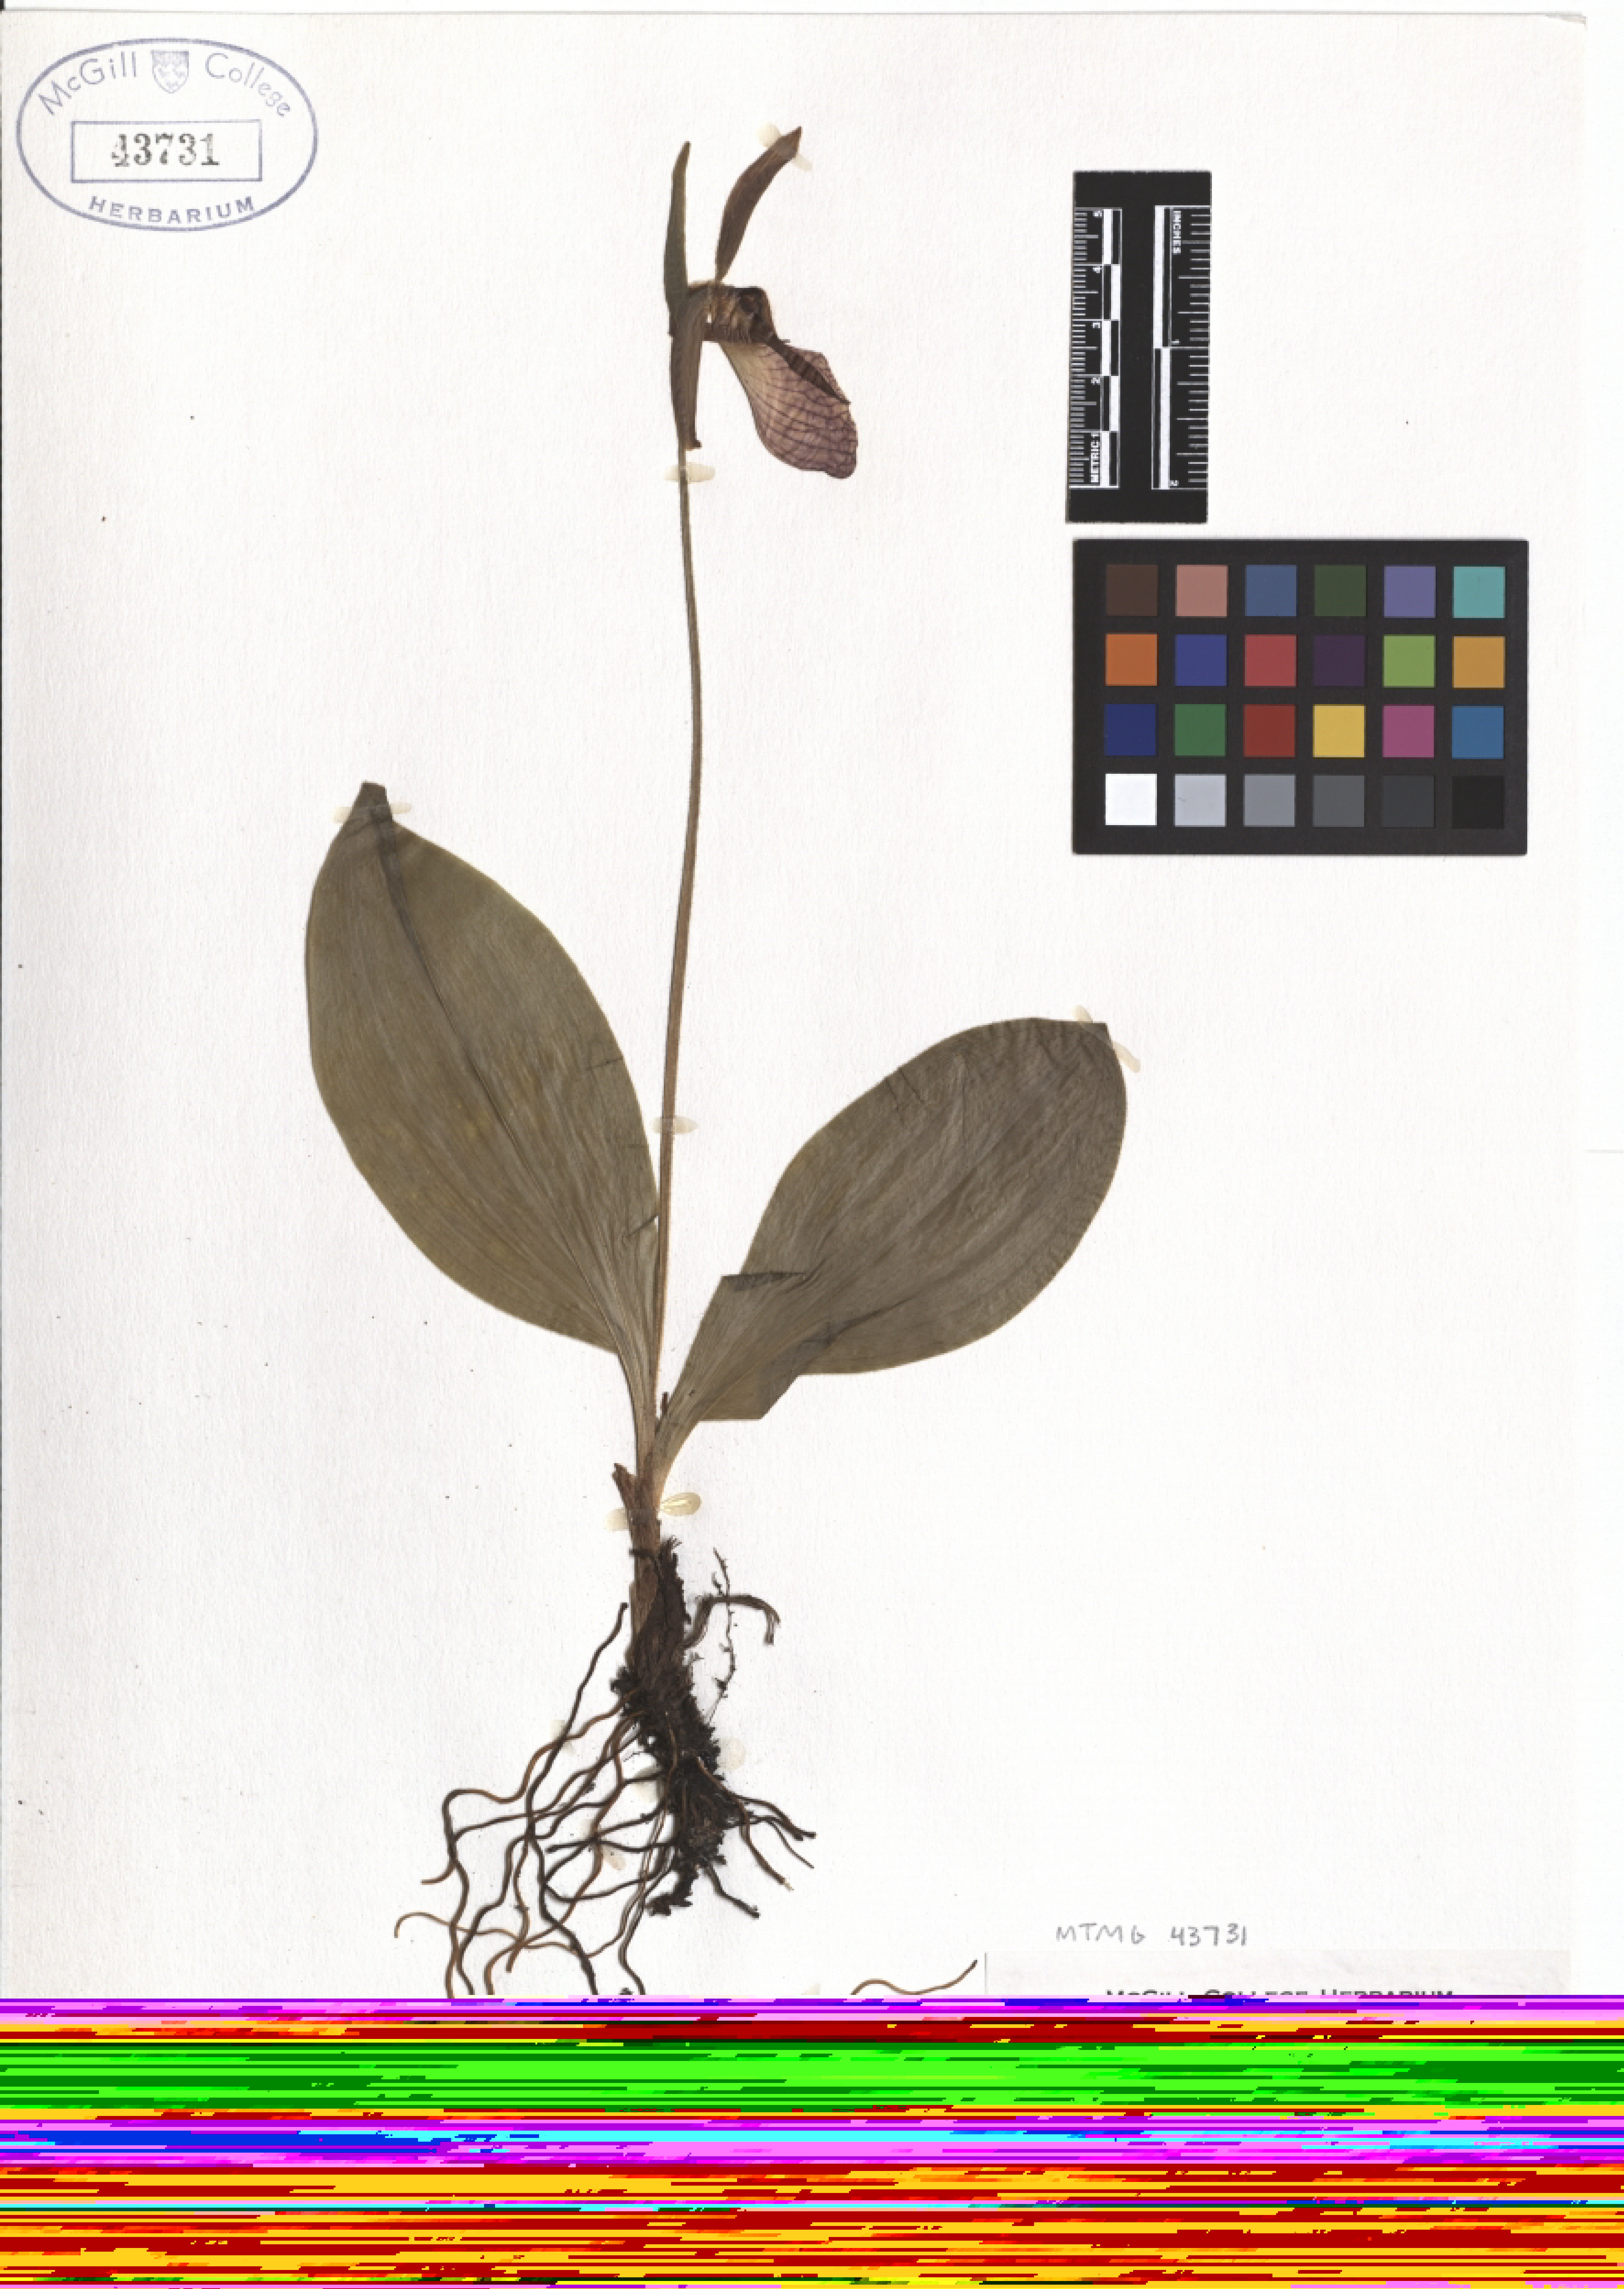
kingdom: Plantae
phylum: Tracheophyta
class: Liliopsida
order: Asparagales
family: Orchidaceae
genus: Cypripedium
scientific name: Cypripedium acaule
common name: Pink lady's-slipper
